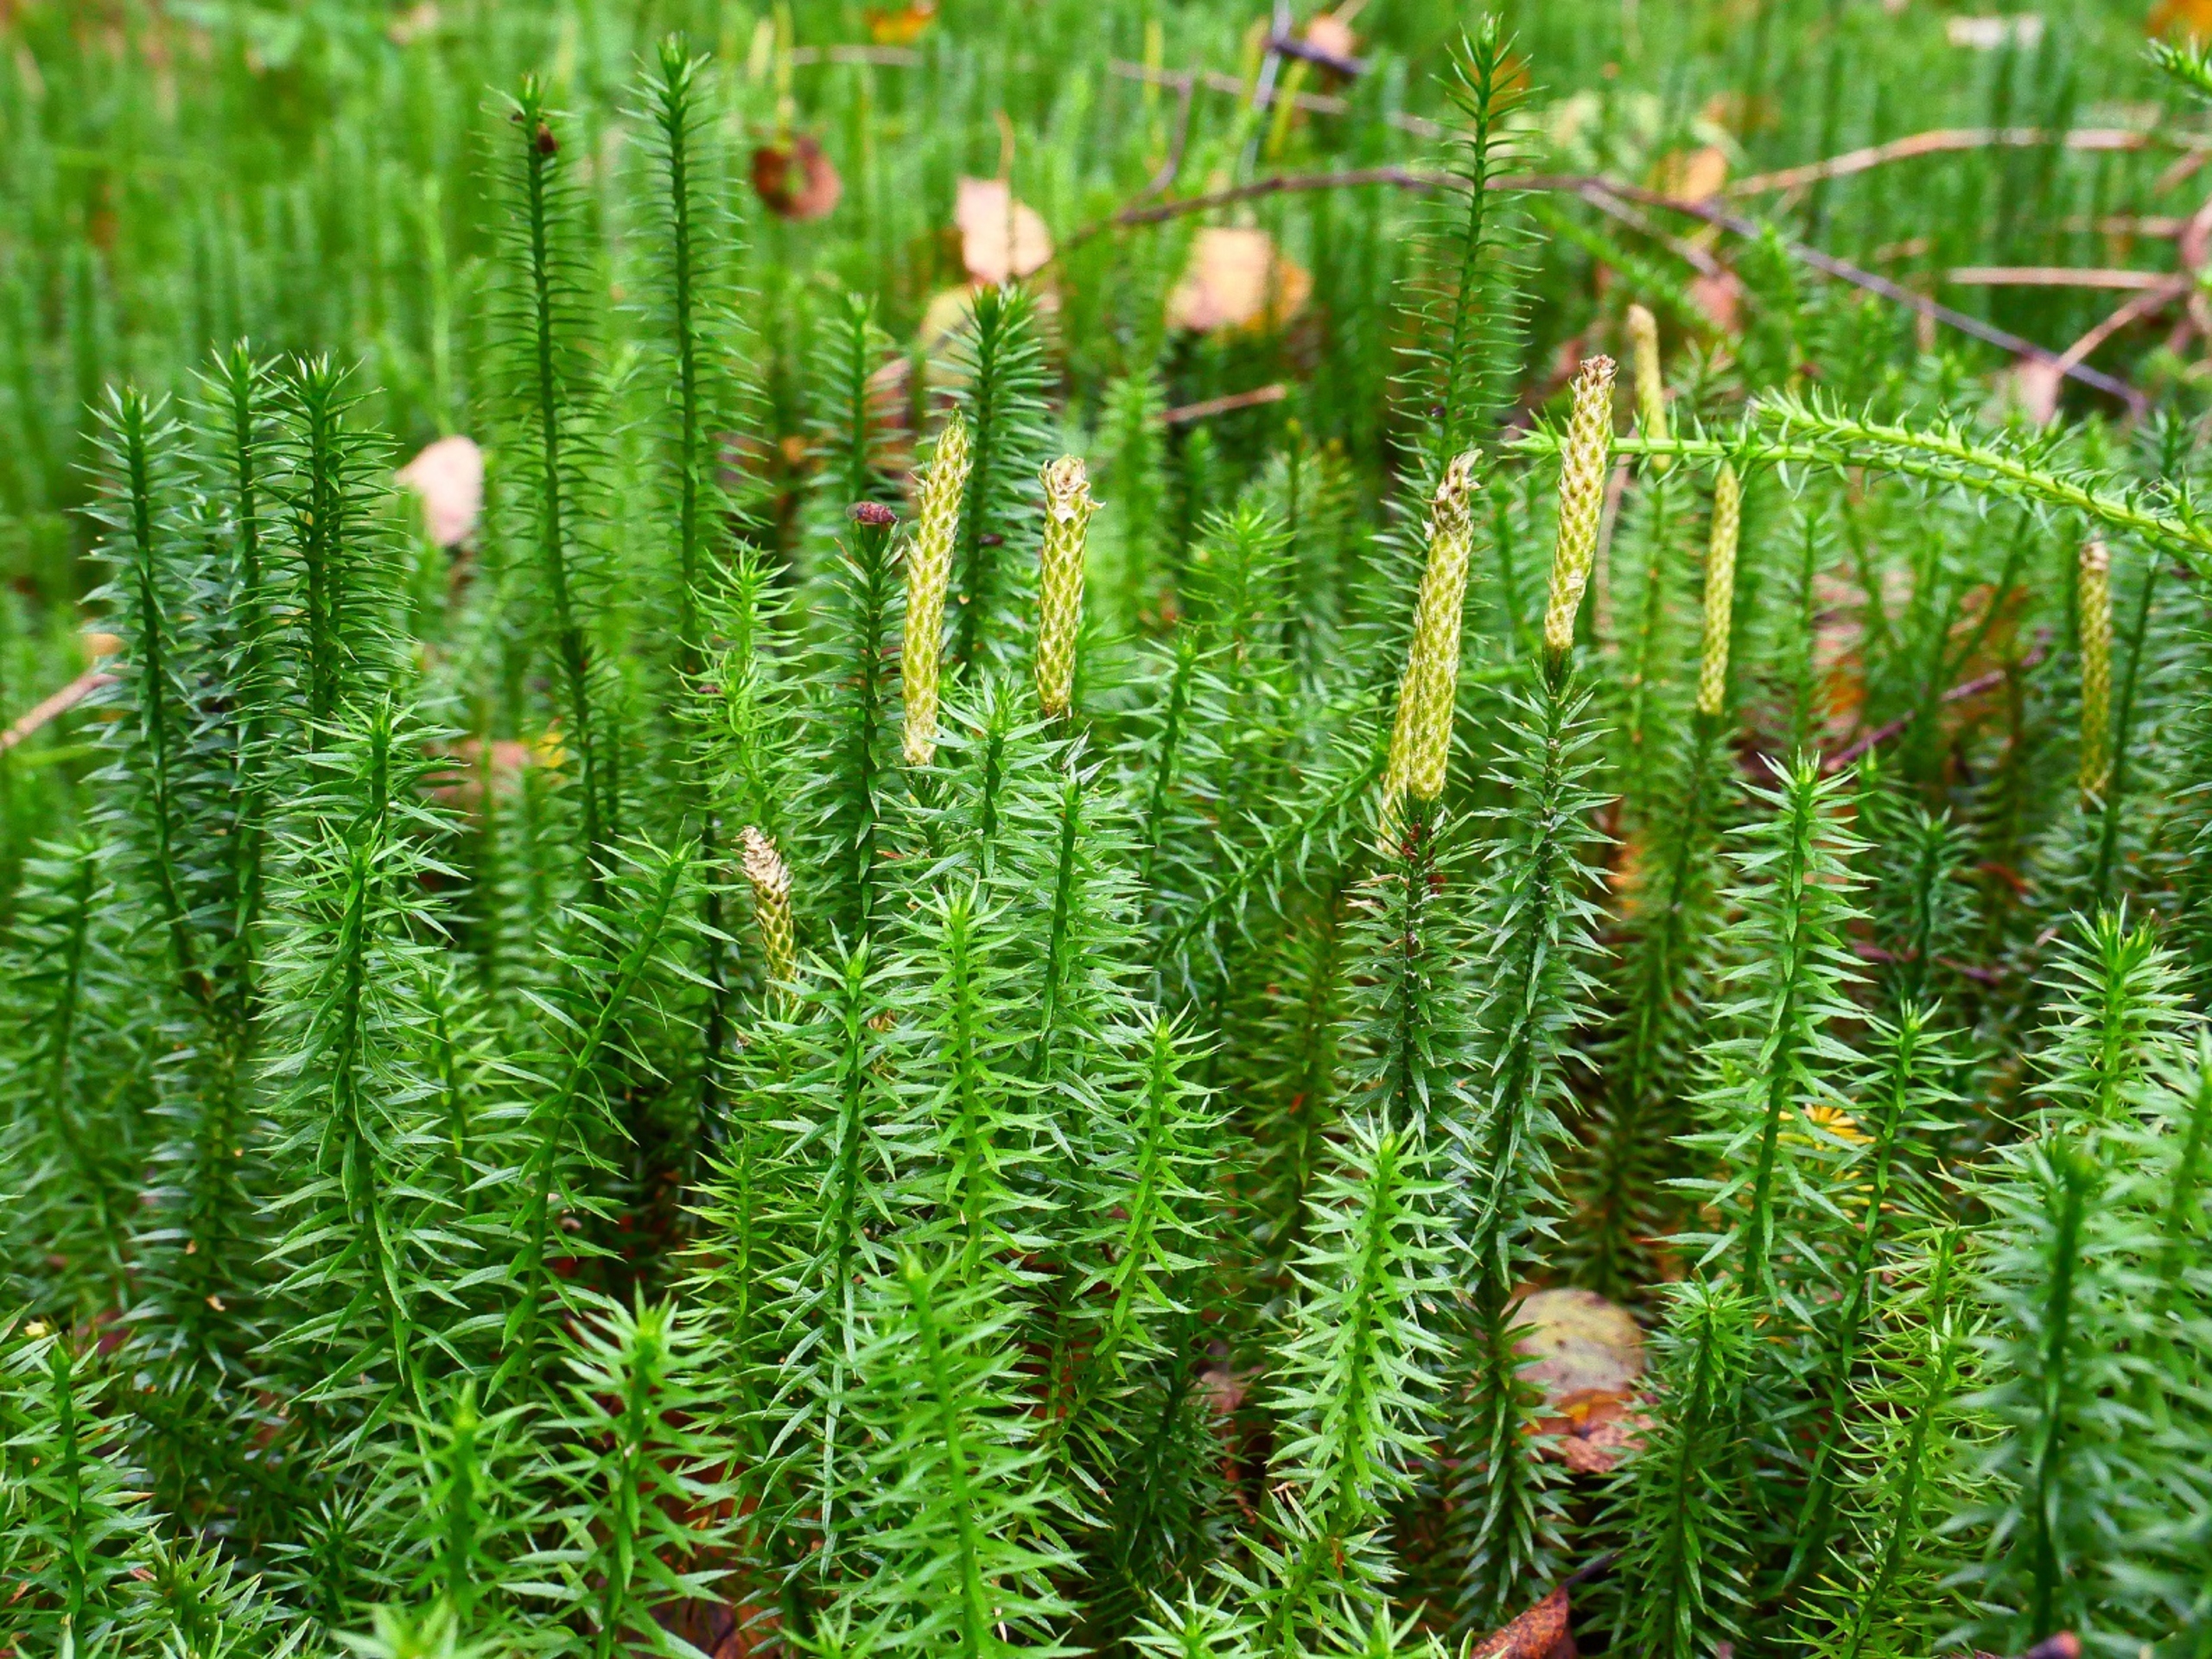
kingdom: Plantae
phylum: Tracheophyta
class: Lycopodiopsida
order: Lycopodiales
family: Lycopodiaceae
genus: Spinulum
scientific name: Spinulum annotinum
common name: Femradet ulvefod
